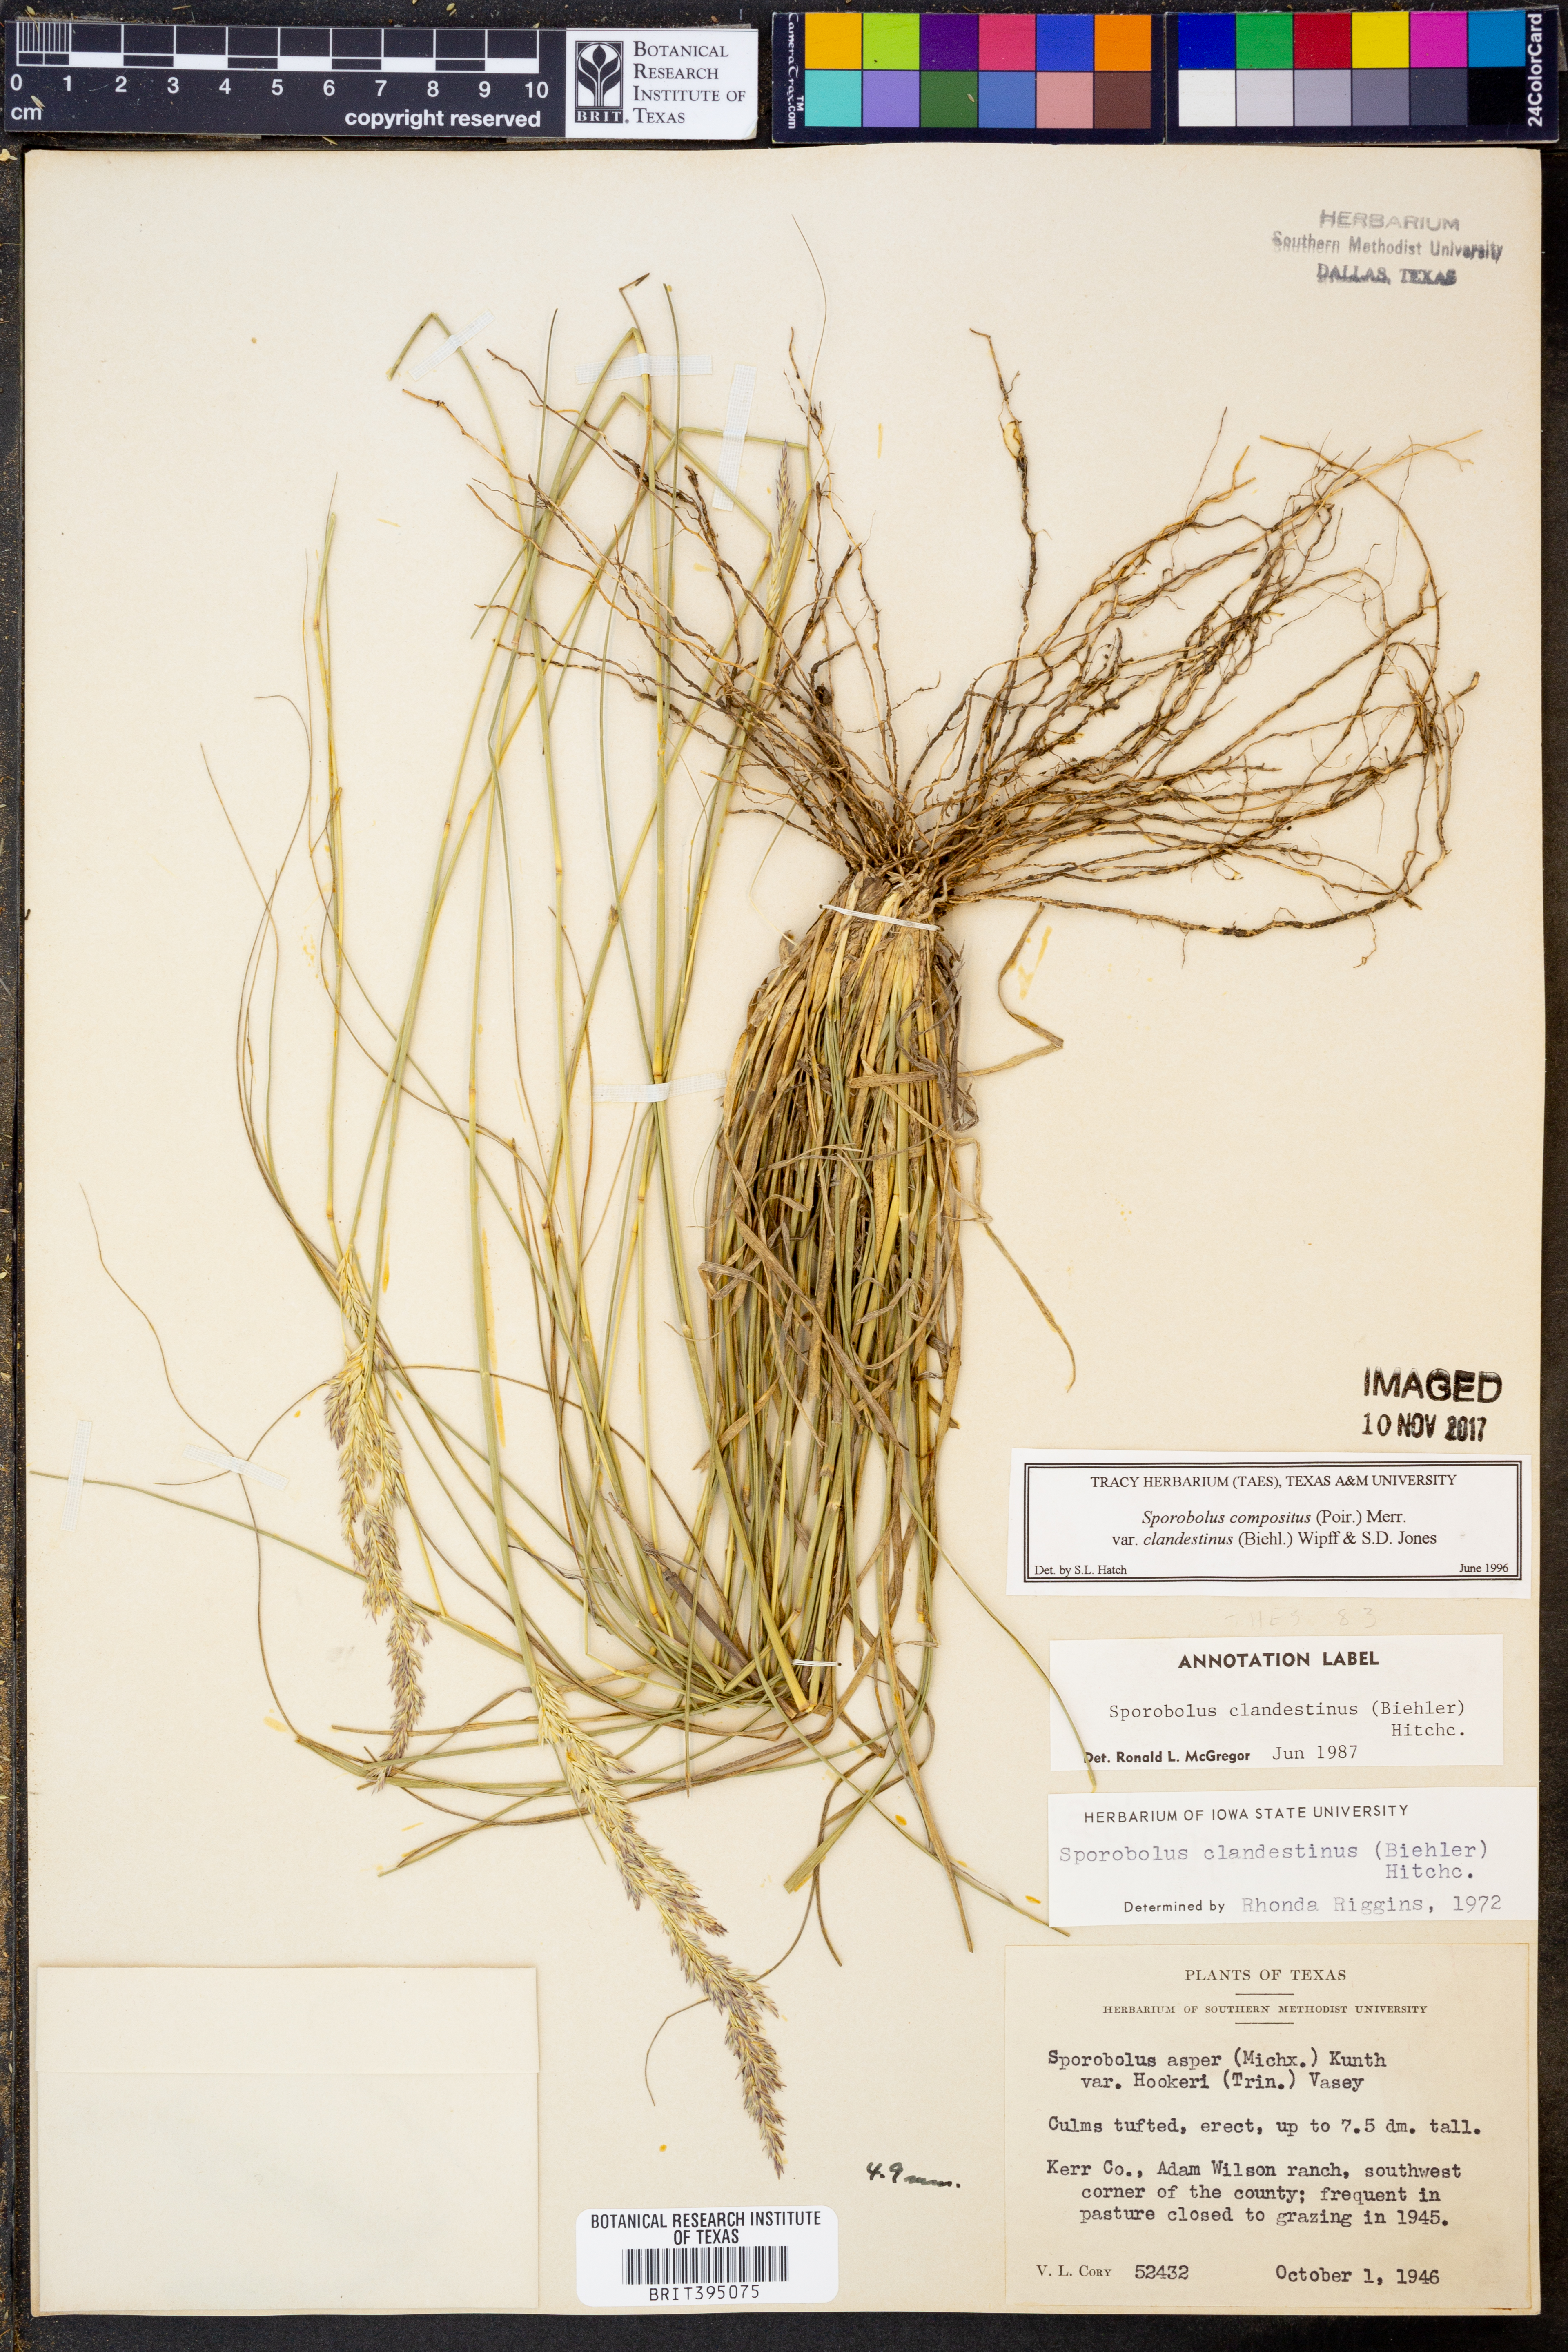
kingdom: Plantae
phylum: Tracheophyta
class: Liliopsida
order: Poales
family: Poaceae
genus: Sporobolus
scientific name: Sporobolus clandestinus
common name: Hidden dropseed
